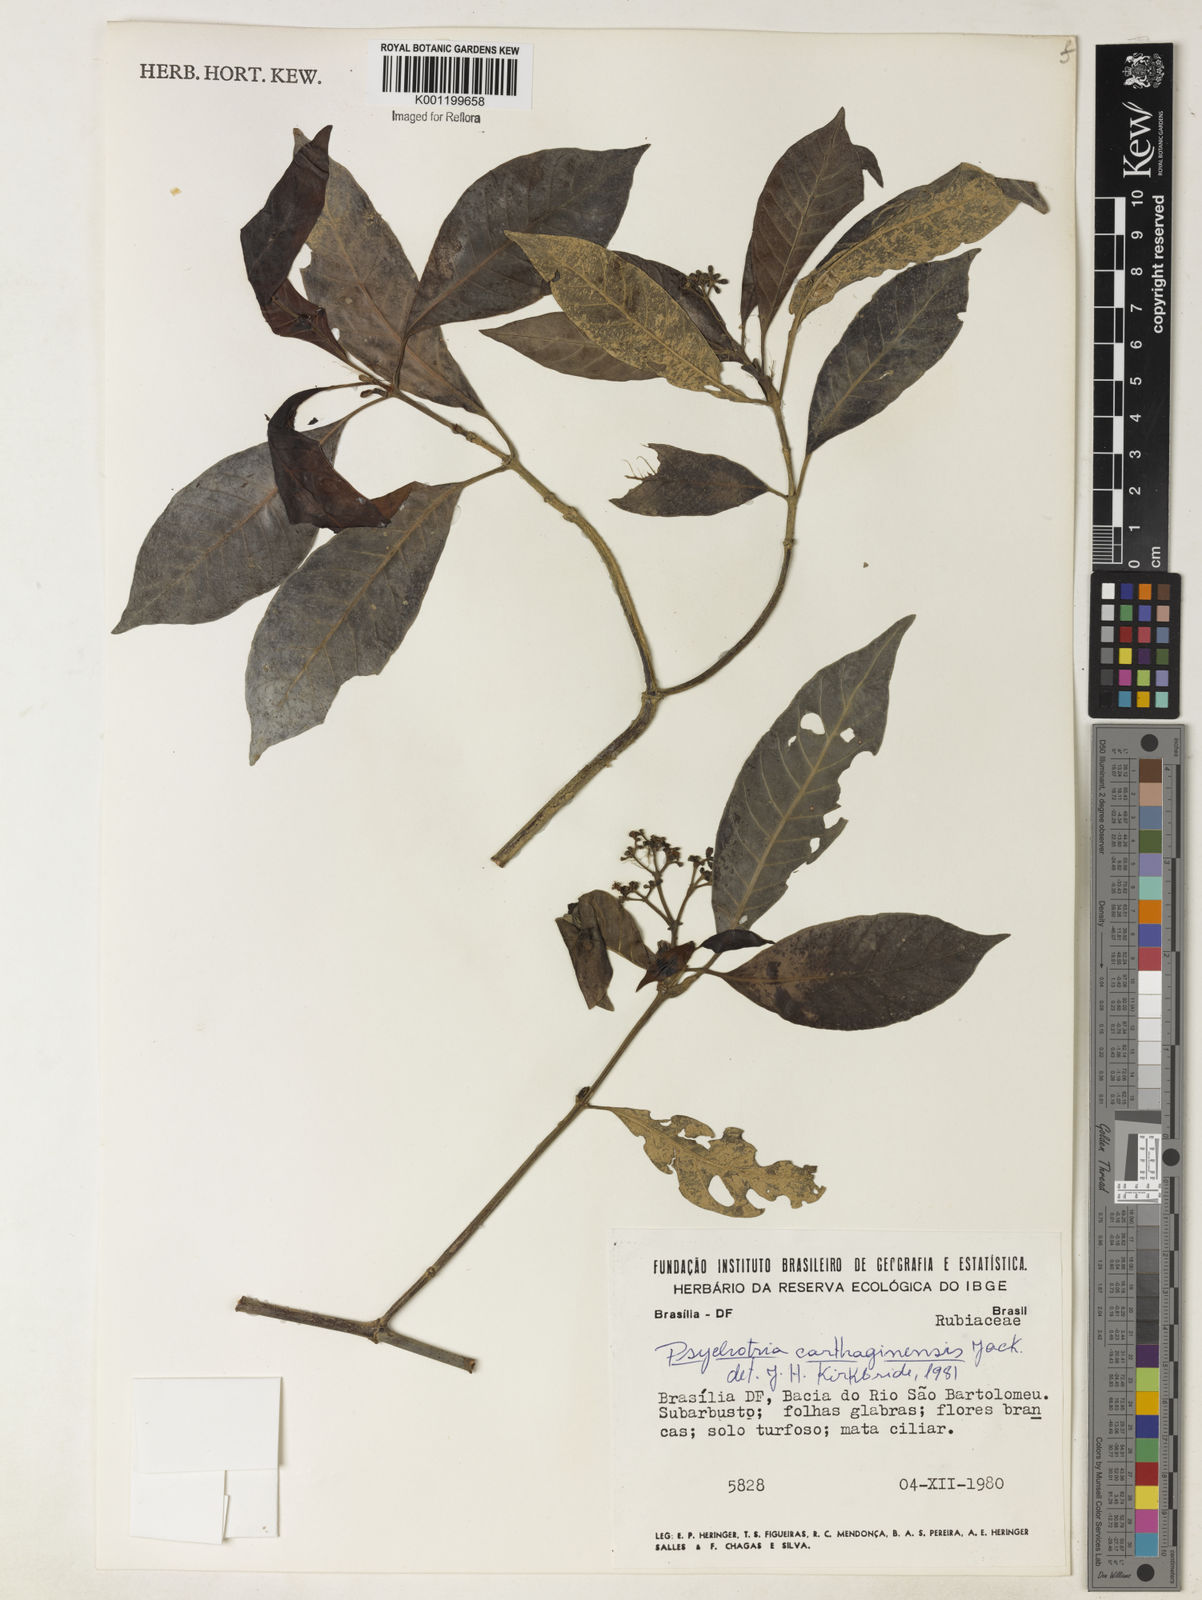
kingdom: Plantae
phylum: Tracheophyta
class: Magnoliopsida
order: Gentianales
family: Rubiaceae
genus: Psychotria
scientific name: Psychotria carthagenensis
